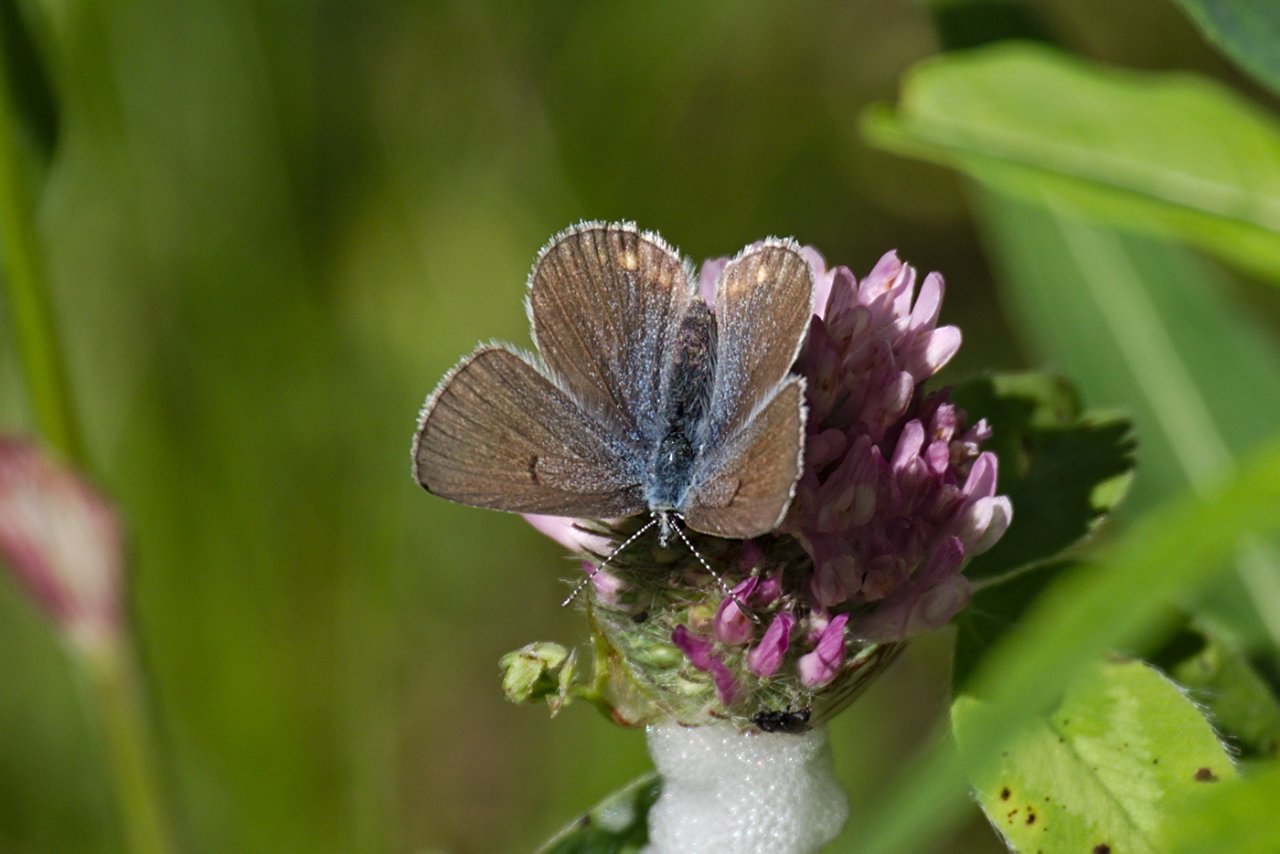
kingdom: Animalia
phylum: Arthropoda
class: Insecta
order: Lepidoptera
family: Lycaenidae
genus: Plebejus
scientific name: Plebejus saepiolus
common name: Greenish Blue
